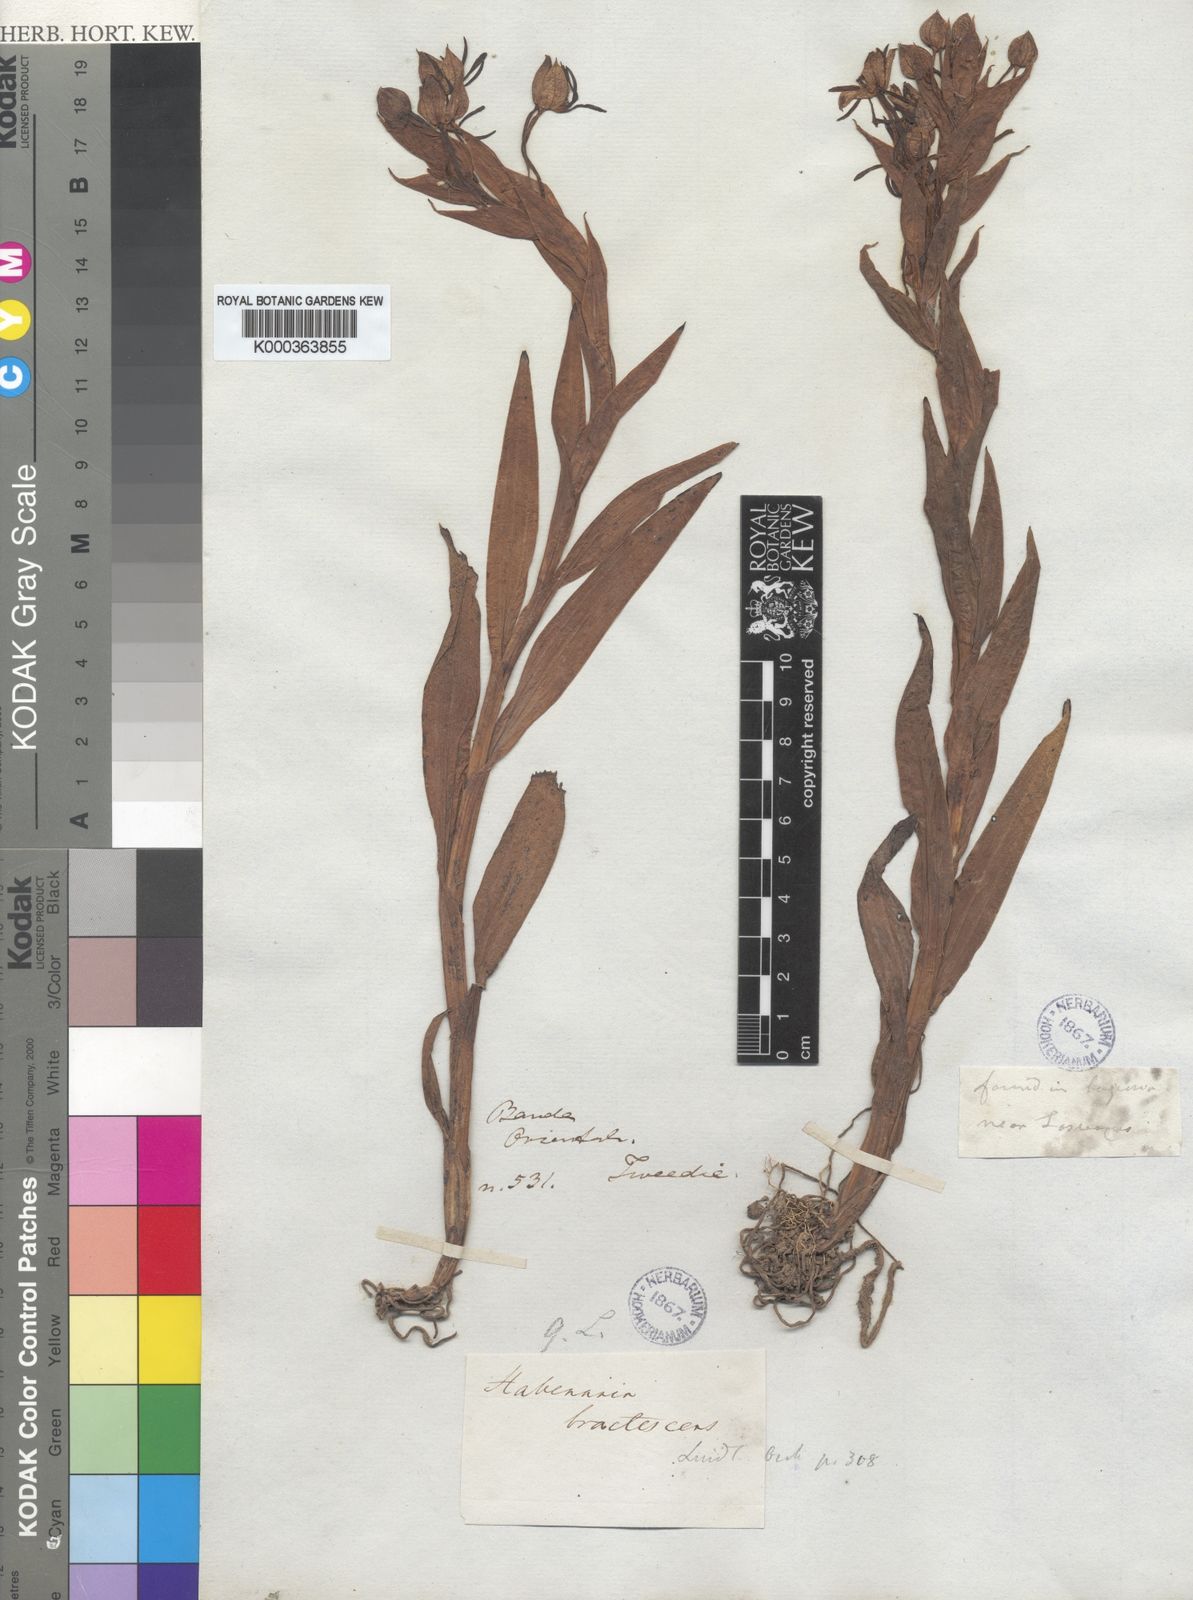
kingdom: Plantae
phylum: Tracheophyta
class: Liliopsida
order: Asparagales
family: Orchidaceae
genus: Habenaria
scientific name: Habenaria bractescens
